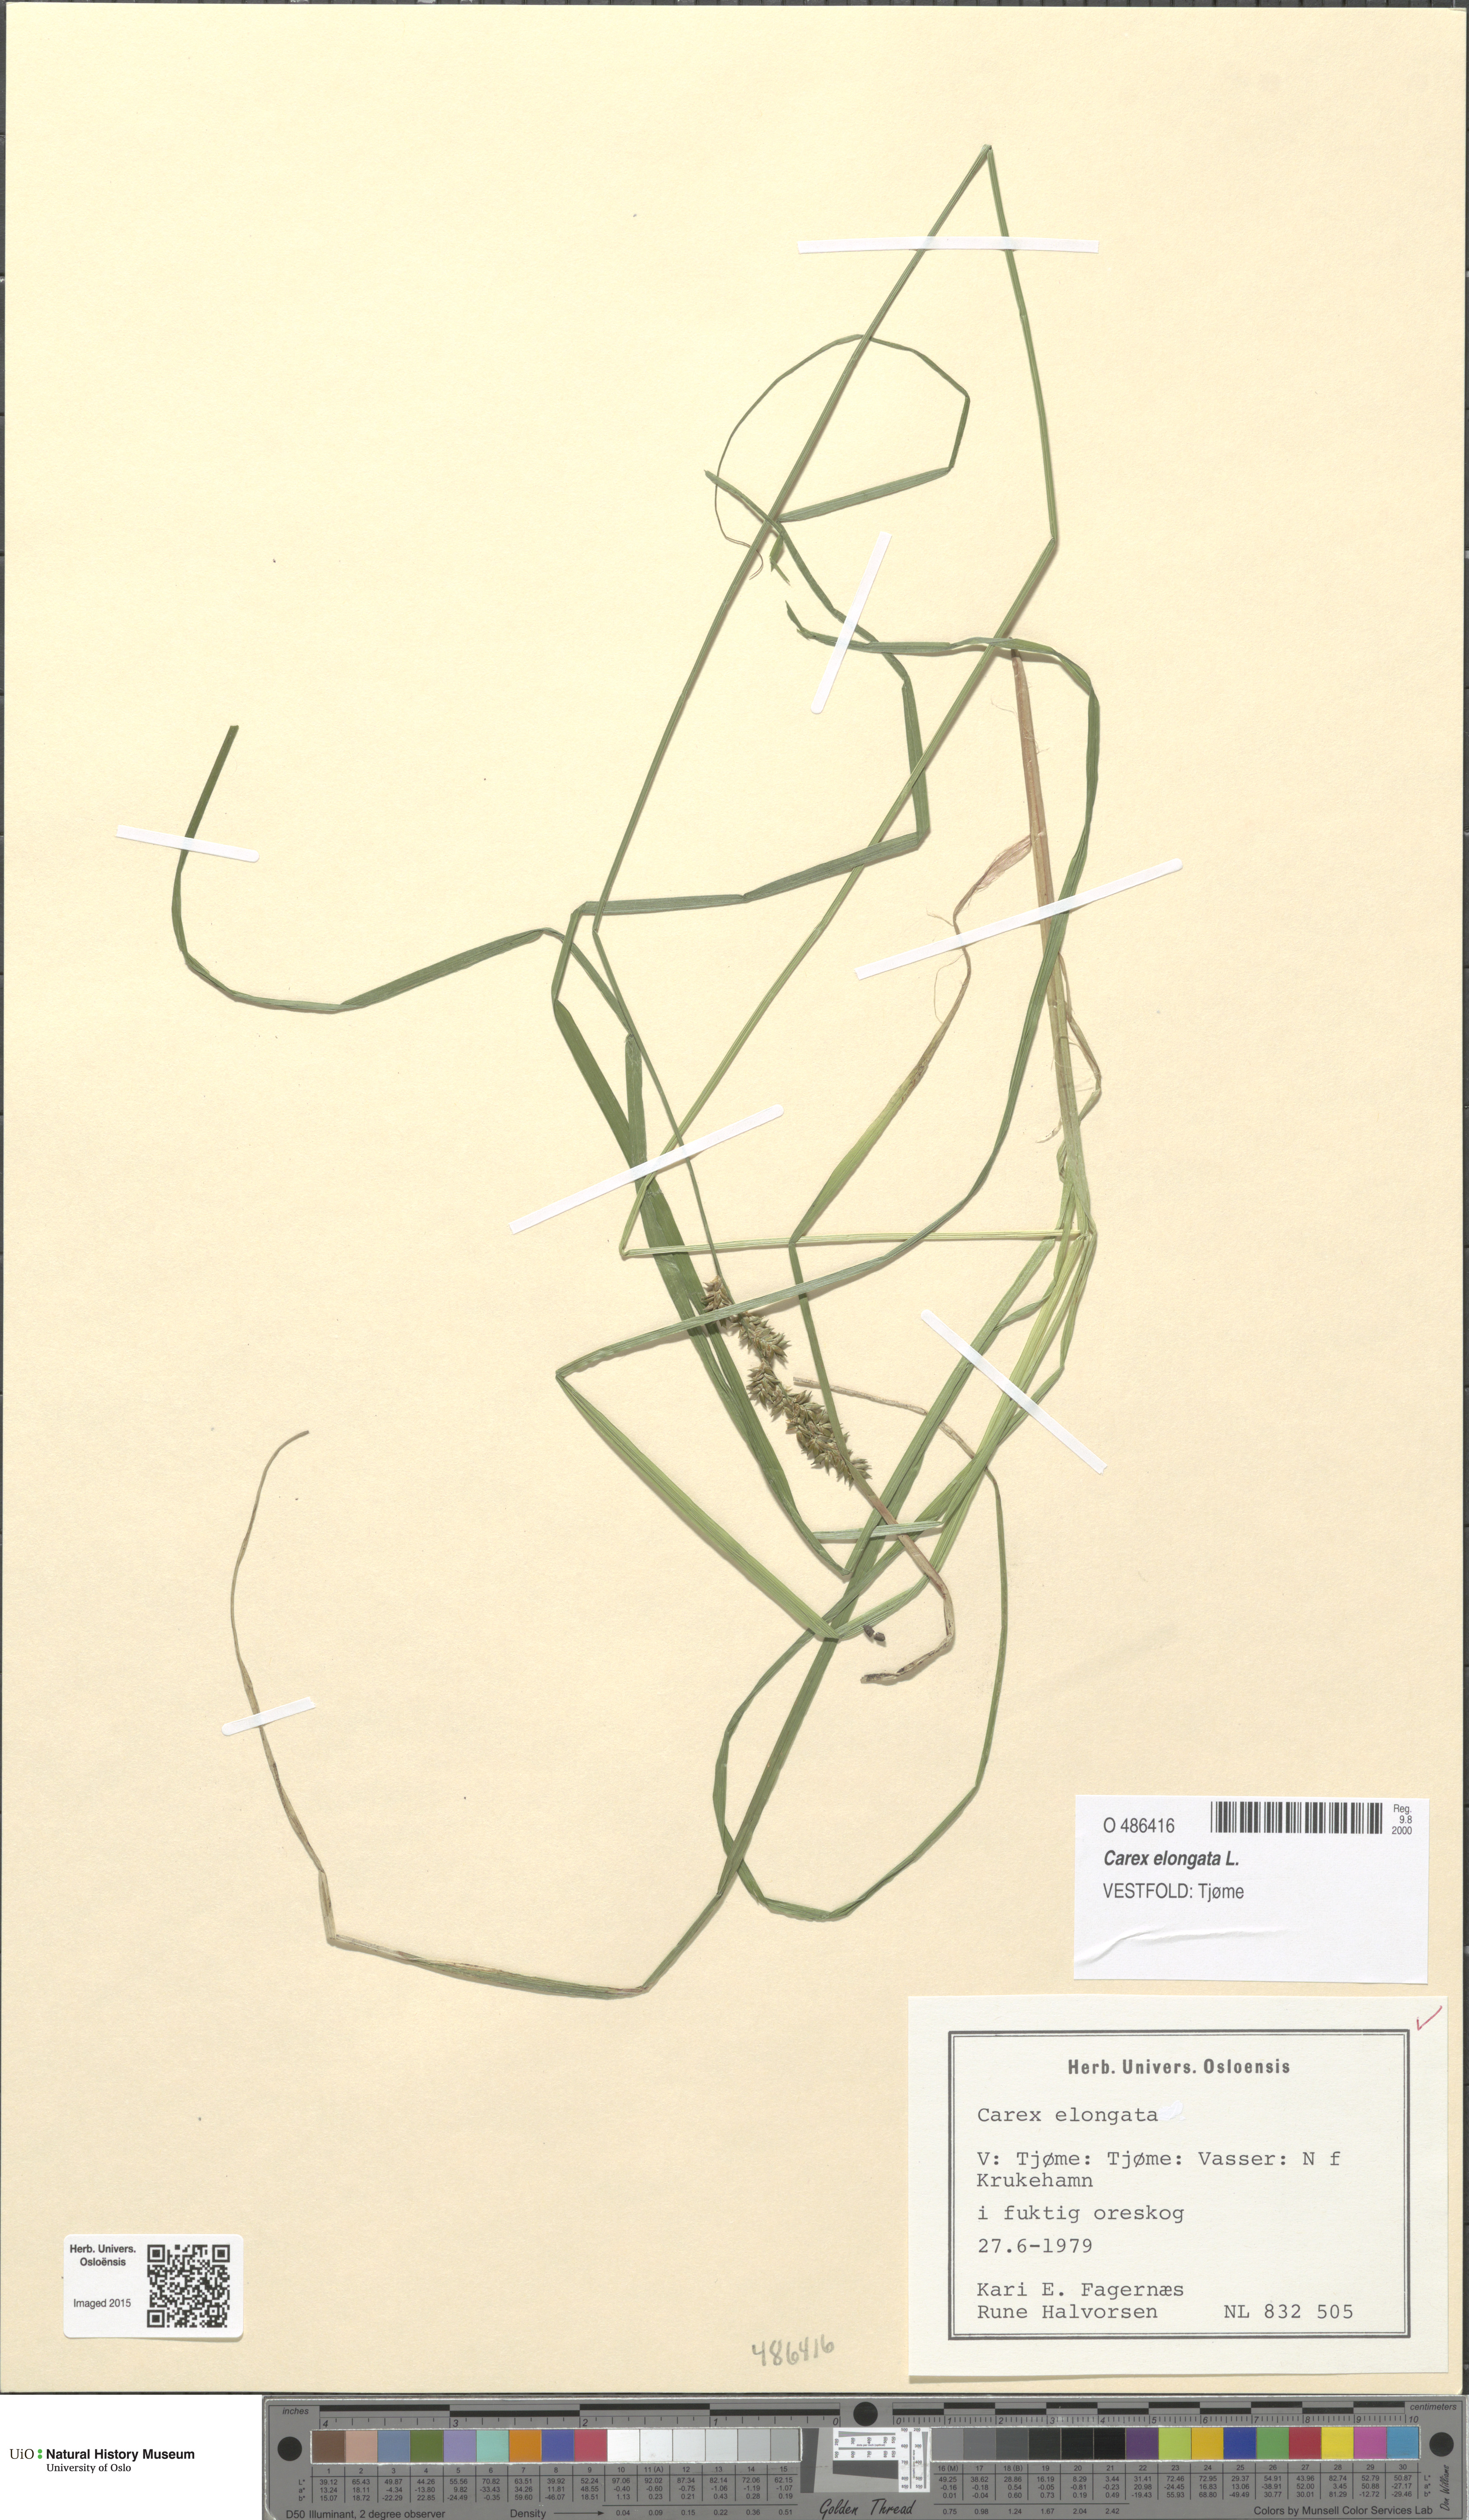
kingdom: Plantae
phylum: Tracheophyta
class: Liliopsida
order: Poales
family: Cyperaceae
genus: Carex
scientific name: Carex elongata
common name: Elongated sedge
